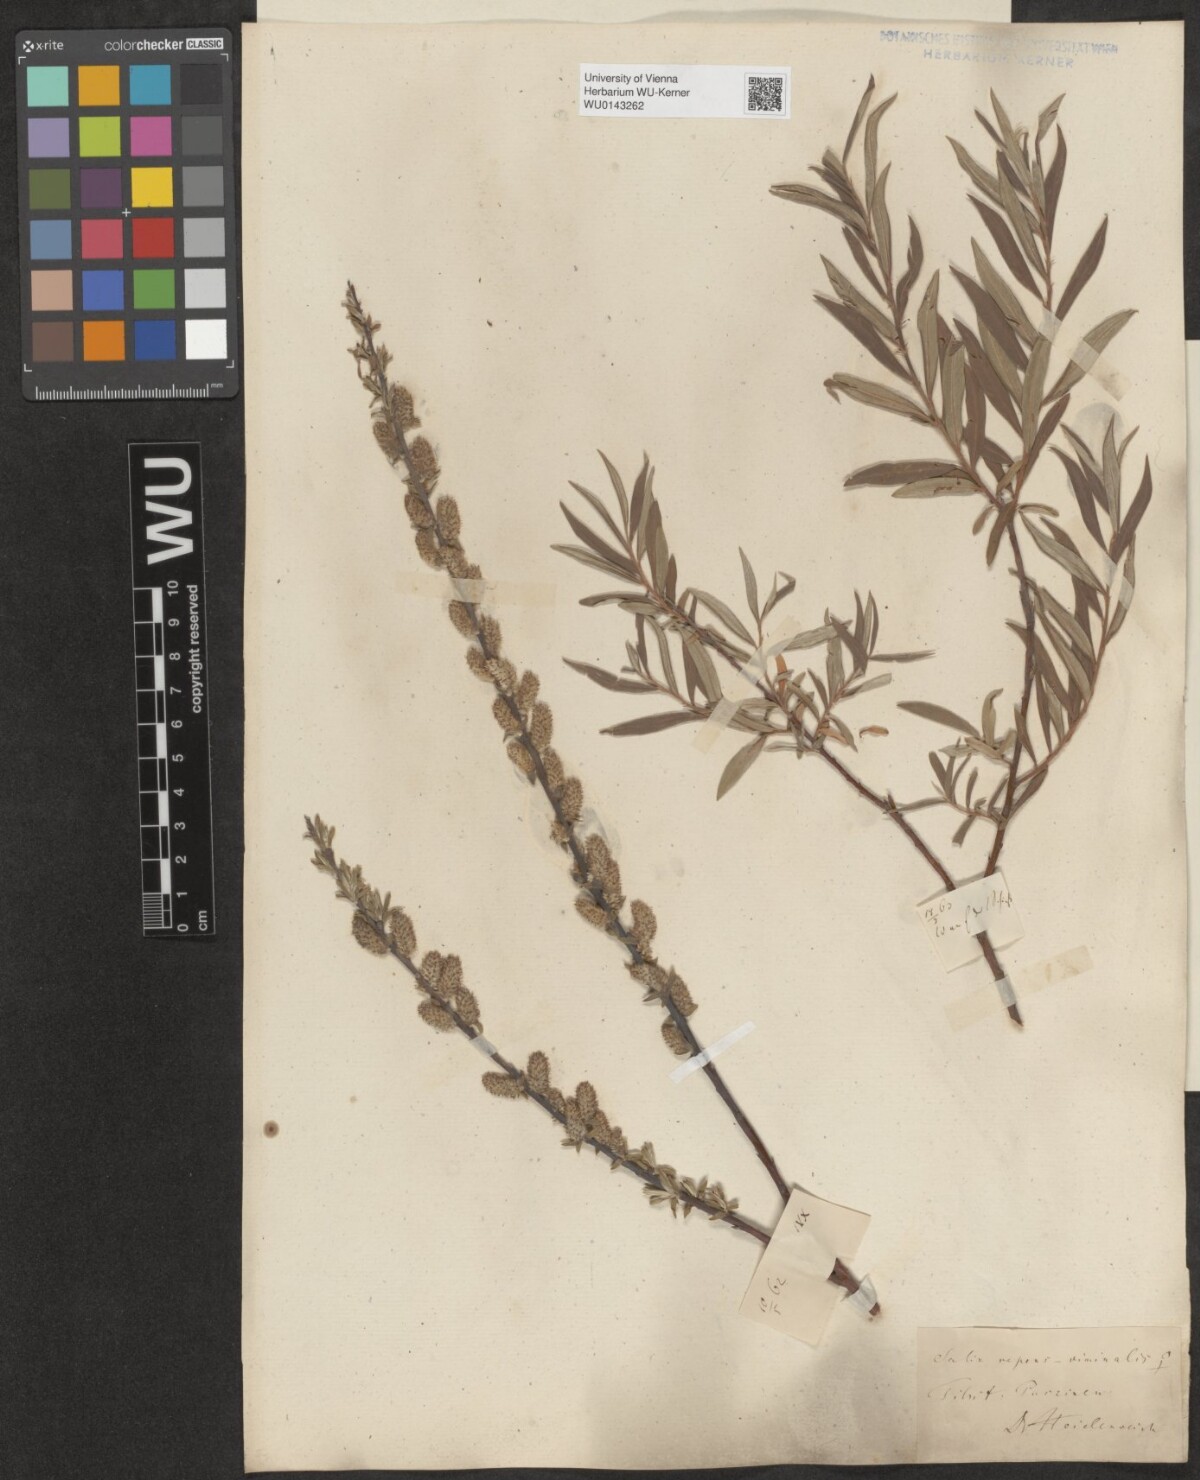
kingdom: Plantae
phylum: Tracheophyta
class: Magnoliopsida
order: Malpighiales
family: Salicaceae
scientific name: Salicaceae
